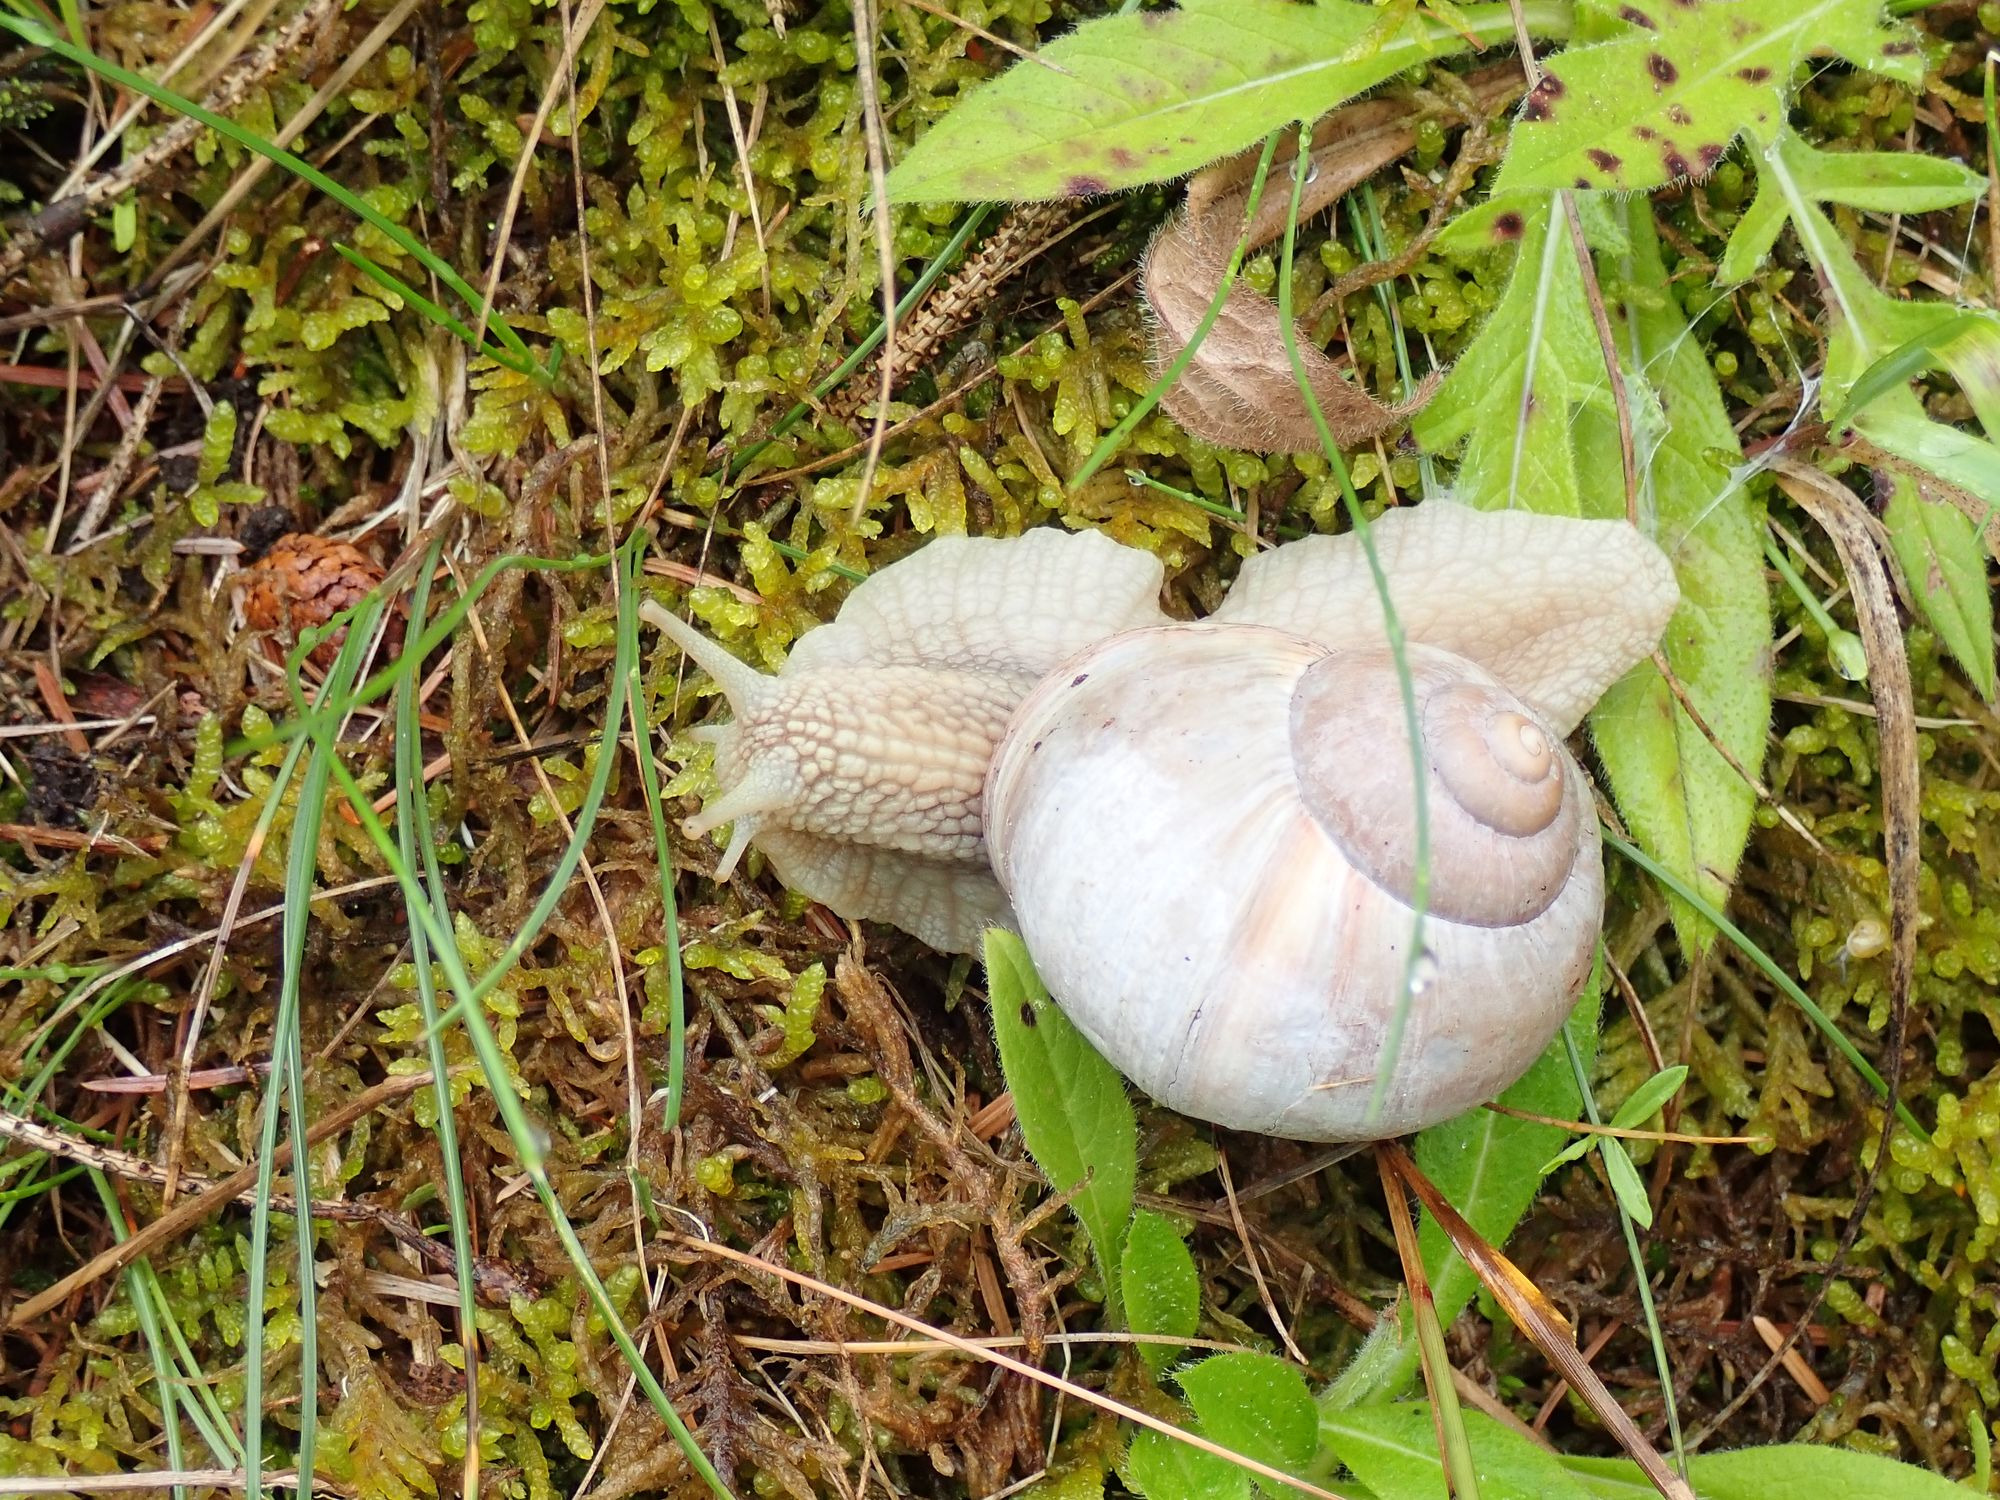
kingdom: Animalia
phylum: Mollusca
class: Gastropoda
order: Stylommatophora
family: Helicidae
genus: Helix
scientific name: Helix pomatia
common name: Vinbjergsnegl
